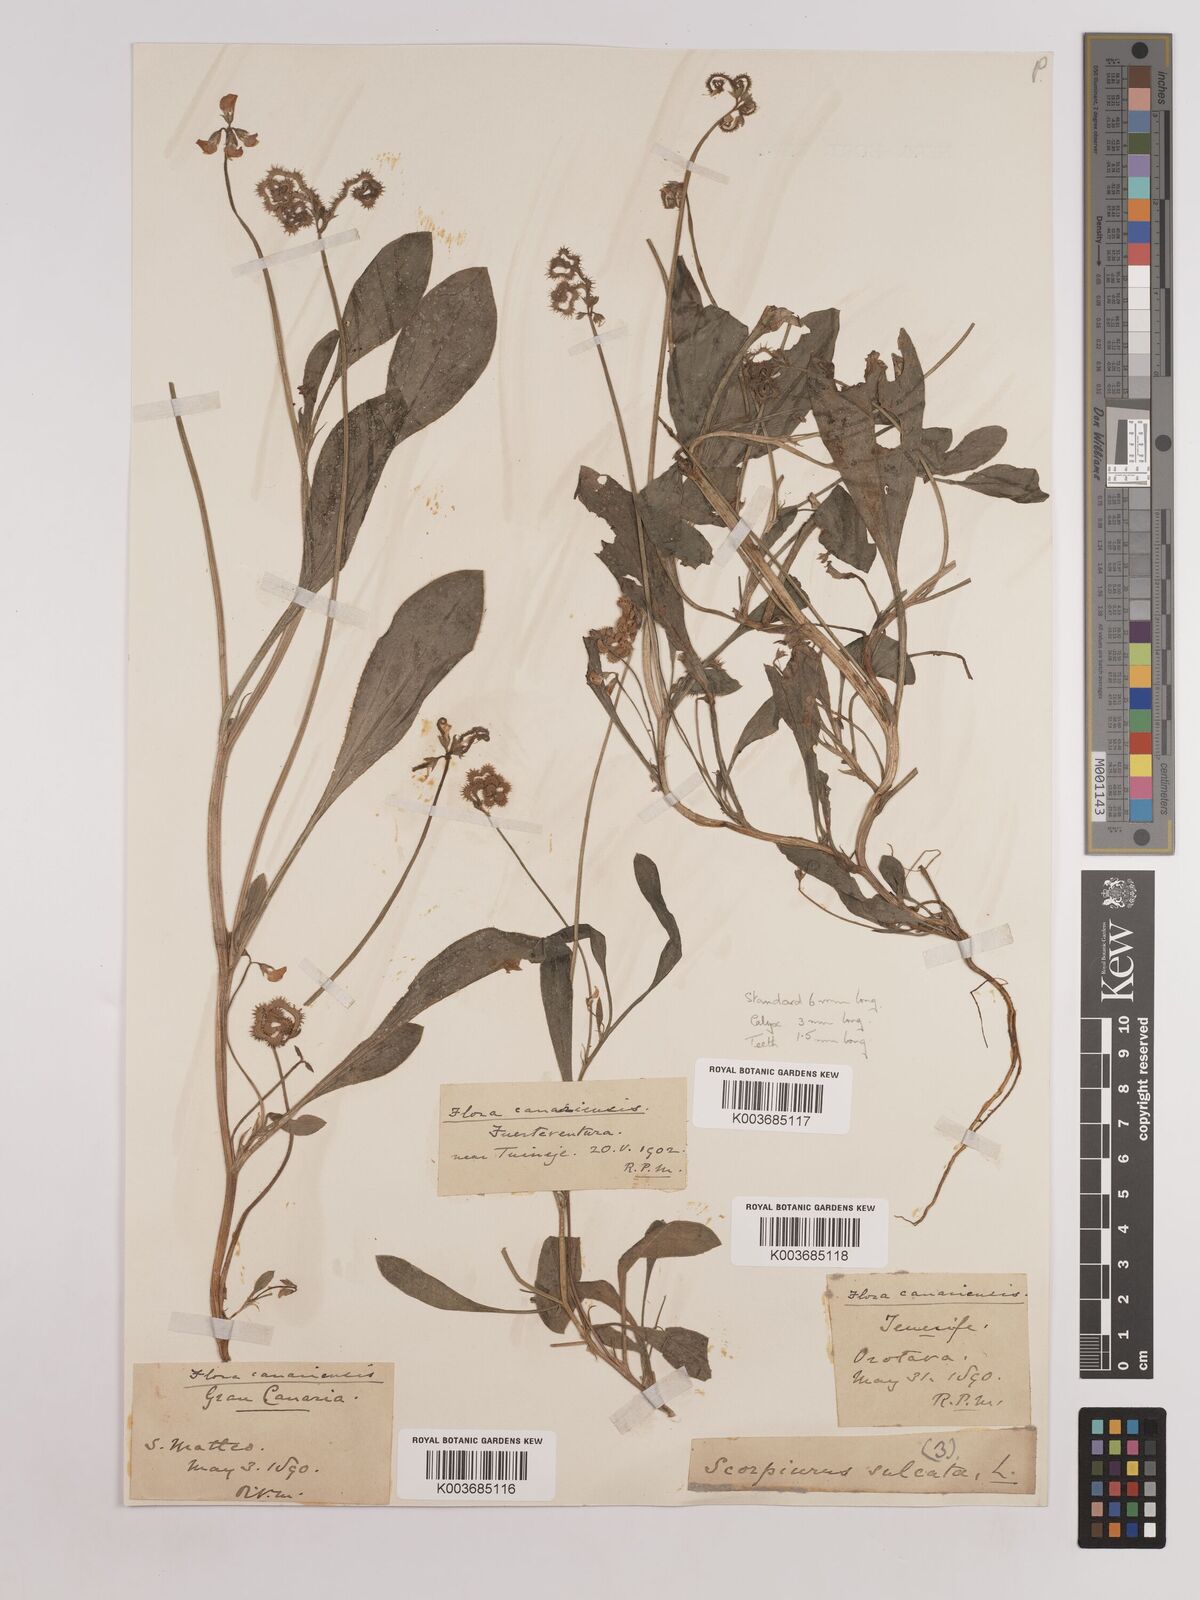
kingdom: Plantae
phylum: Tracheophyta
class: Magnoliopsida
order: Fabales
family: Fabaceae
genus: Scorpiurus
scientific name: Scorpiurus muricatus
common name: Caterpillar-plant
